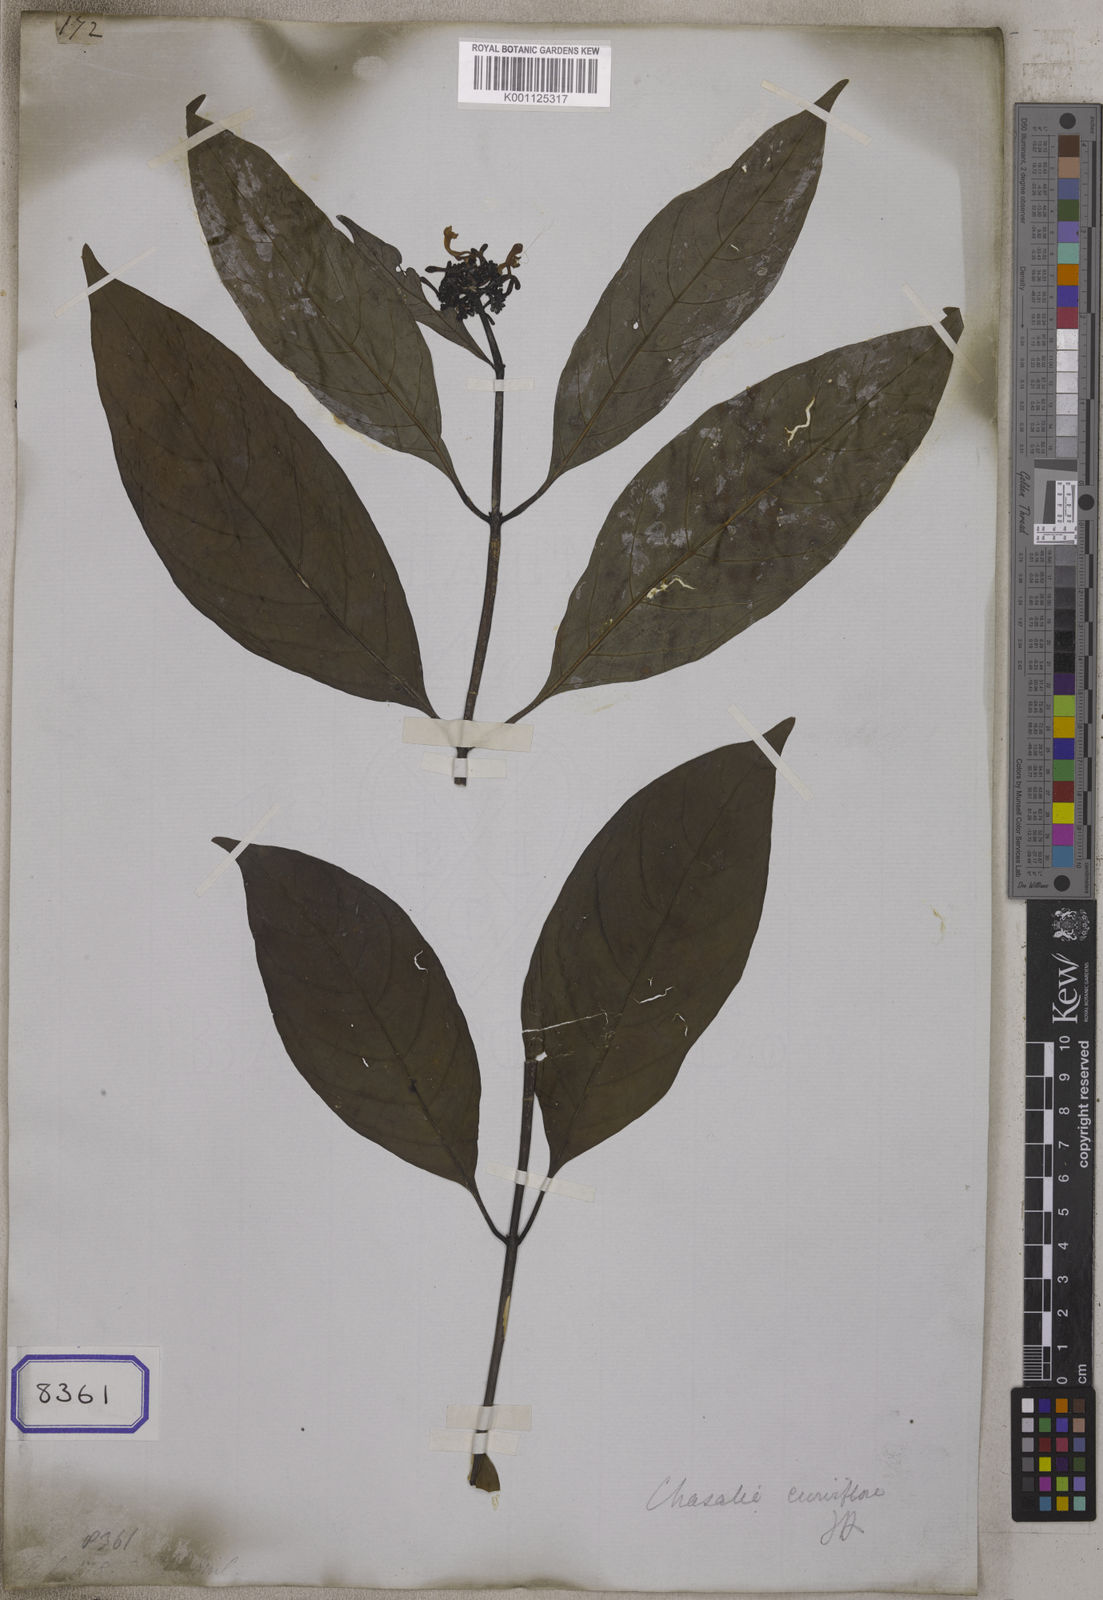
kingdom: Plantae
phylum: Tracheophyta
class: Magnoliopsida
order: Gentianales
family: Rubiaceae
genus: Psychotria
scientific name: Psychotria
